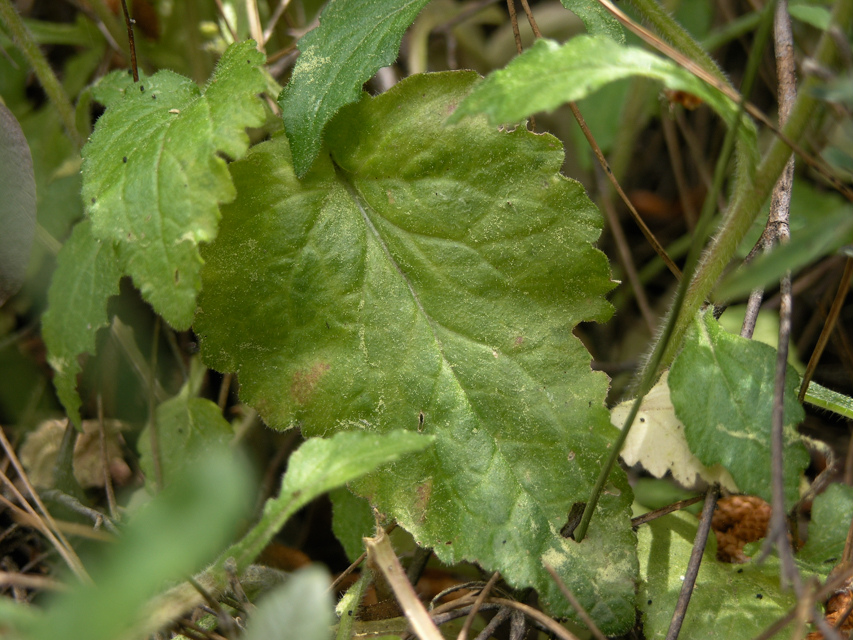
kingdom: Plantae
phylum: Tracheophyta
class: Magnoliopsida
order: Asterales
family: Campanulaceae
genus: Campanula
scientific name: Campanula lyrata
